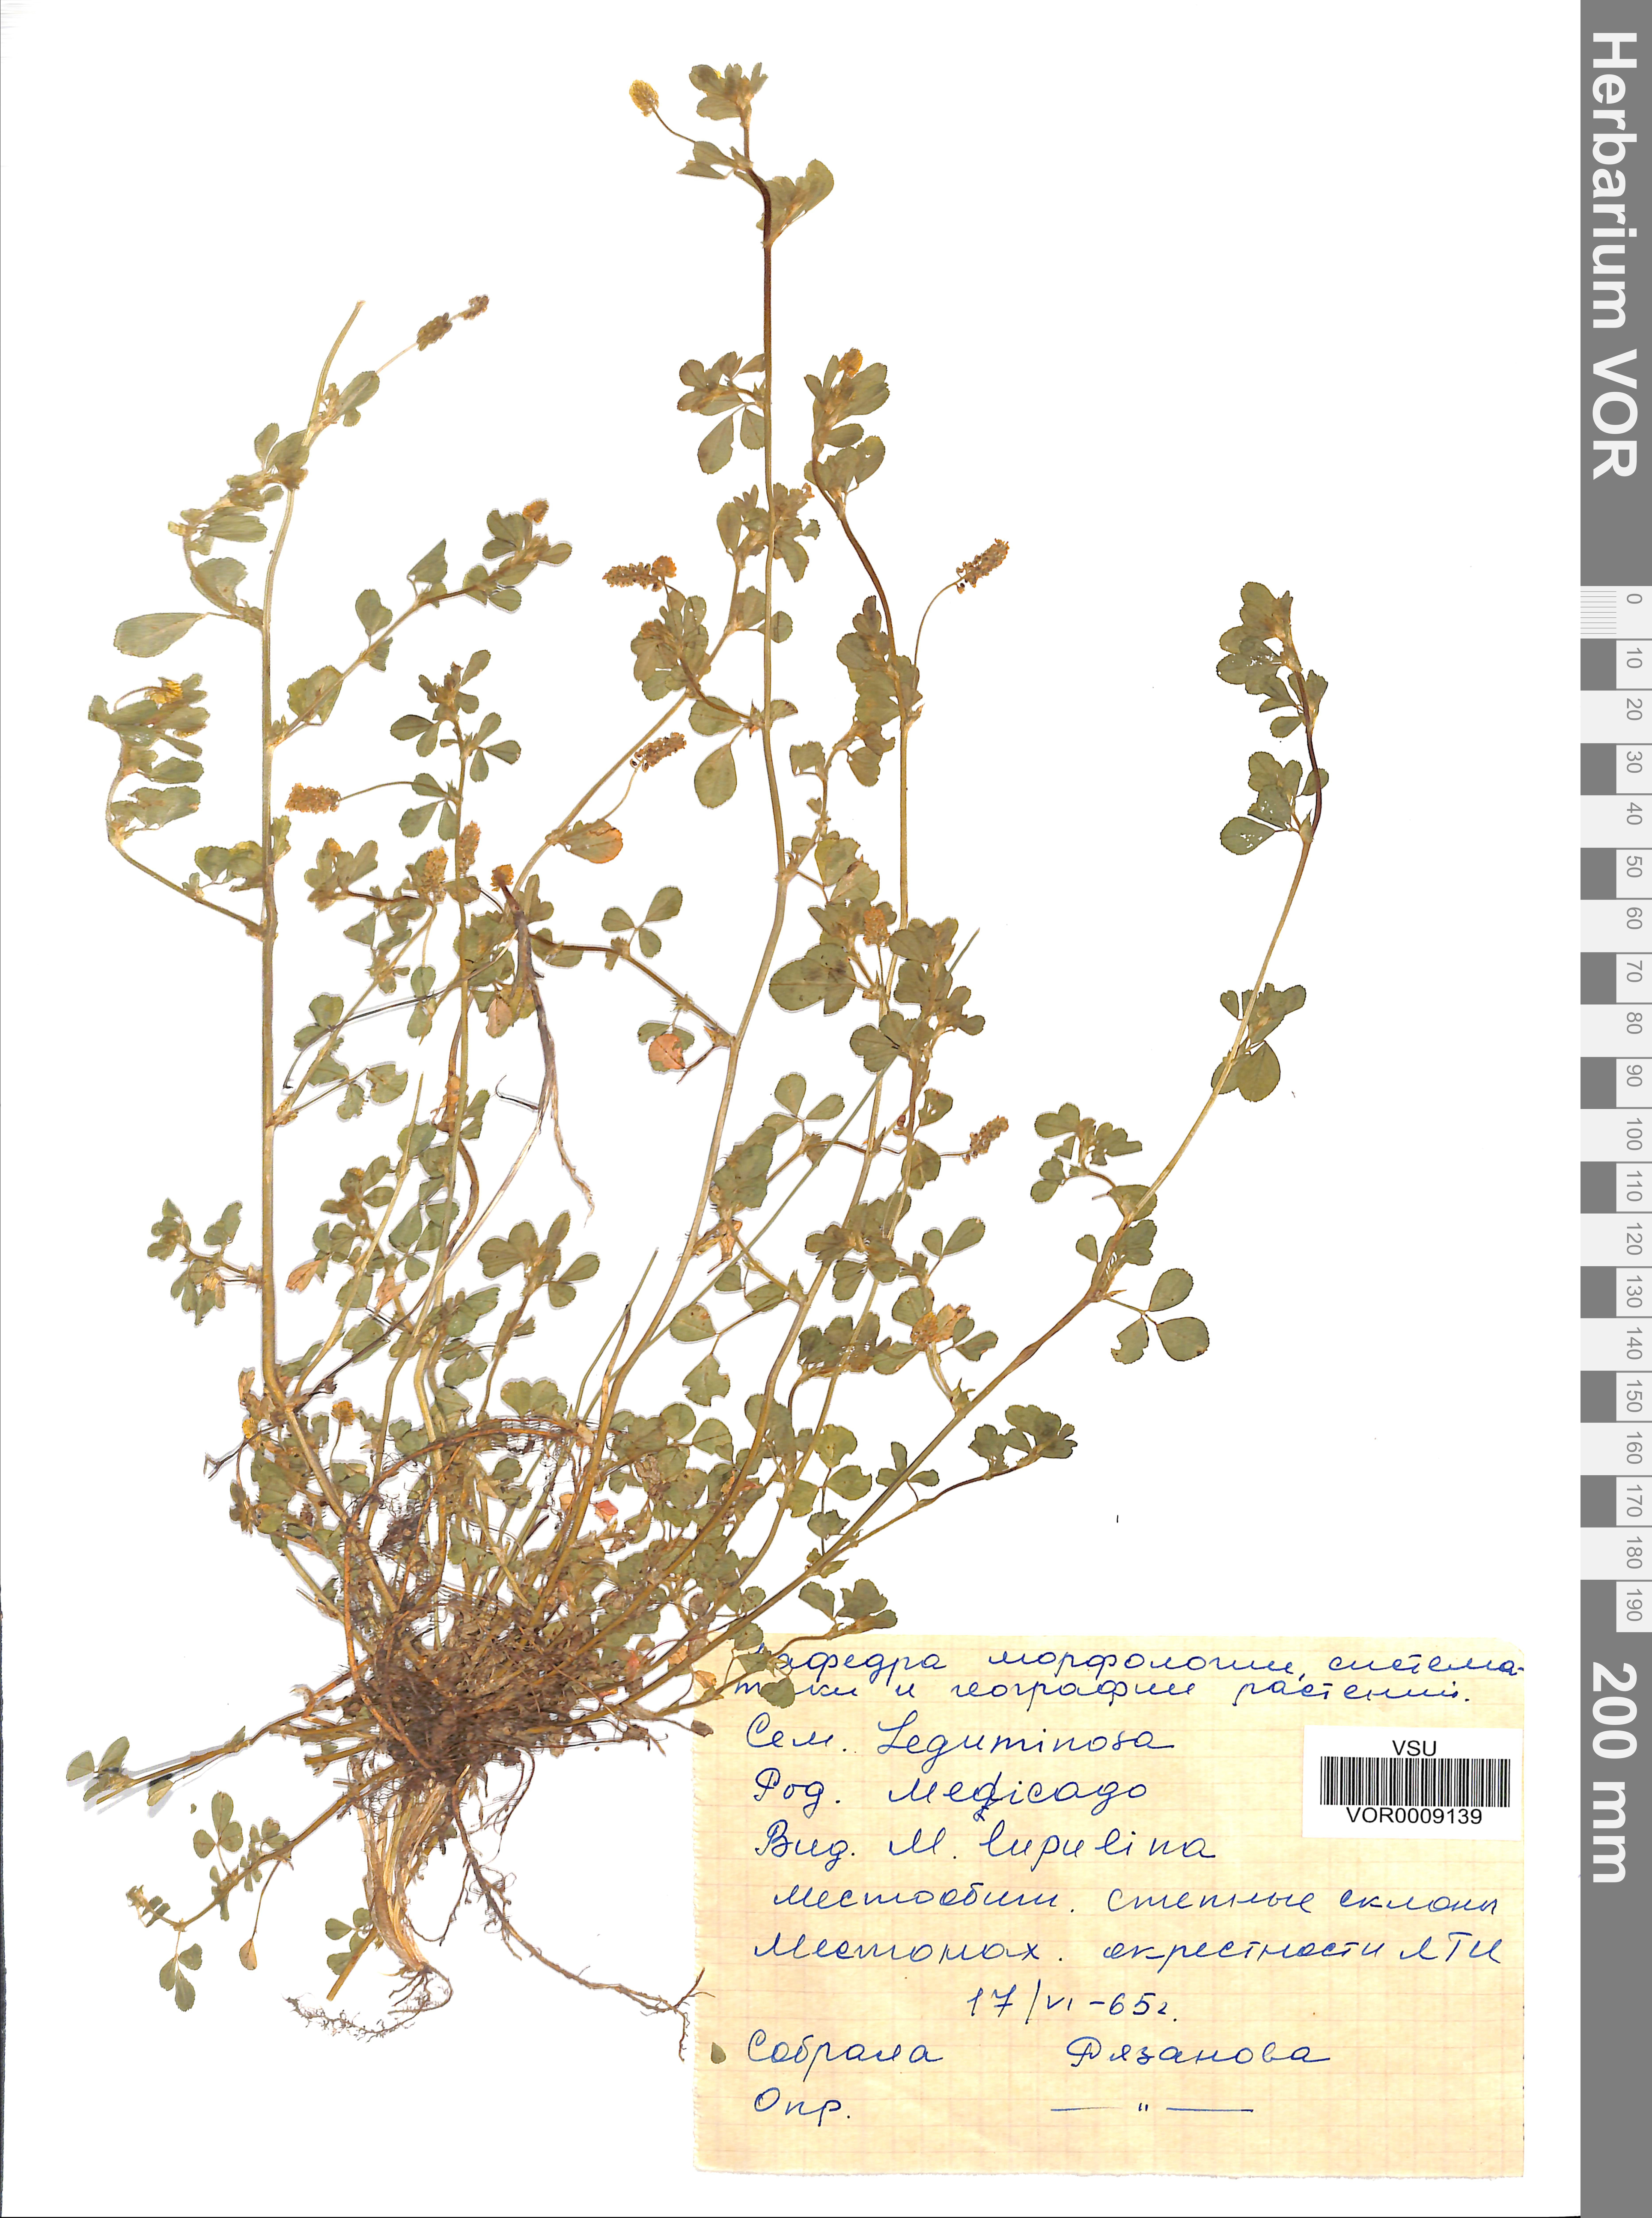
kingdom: Plantae
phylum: Tracheophyta
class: Magnoliopsida
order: Fabales
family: Fabaceae
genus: Medicago
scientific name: Medicago lupulina
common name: Black medick
